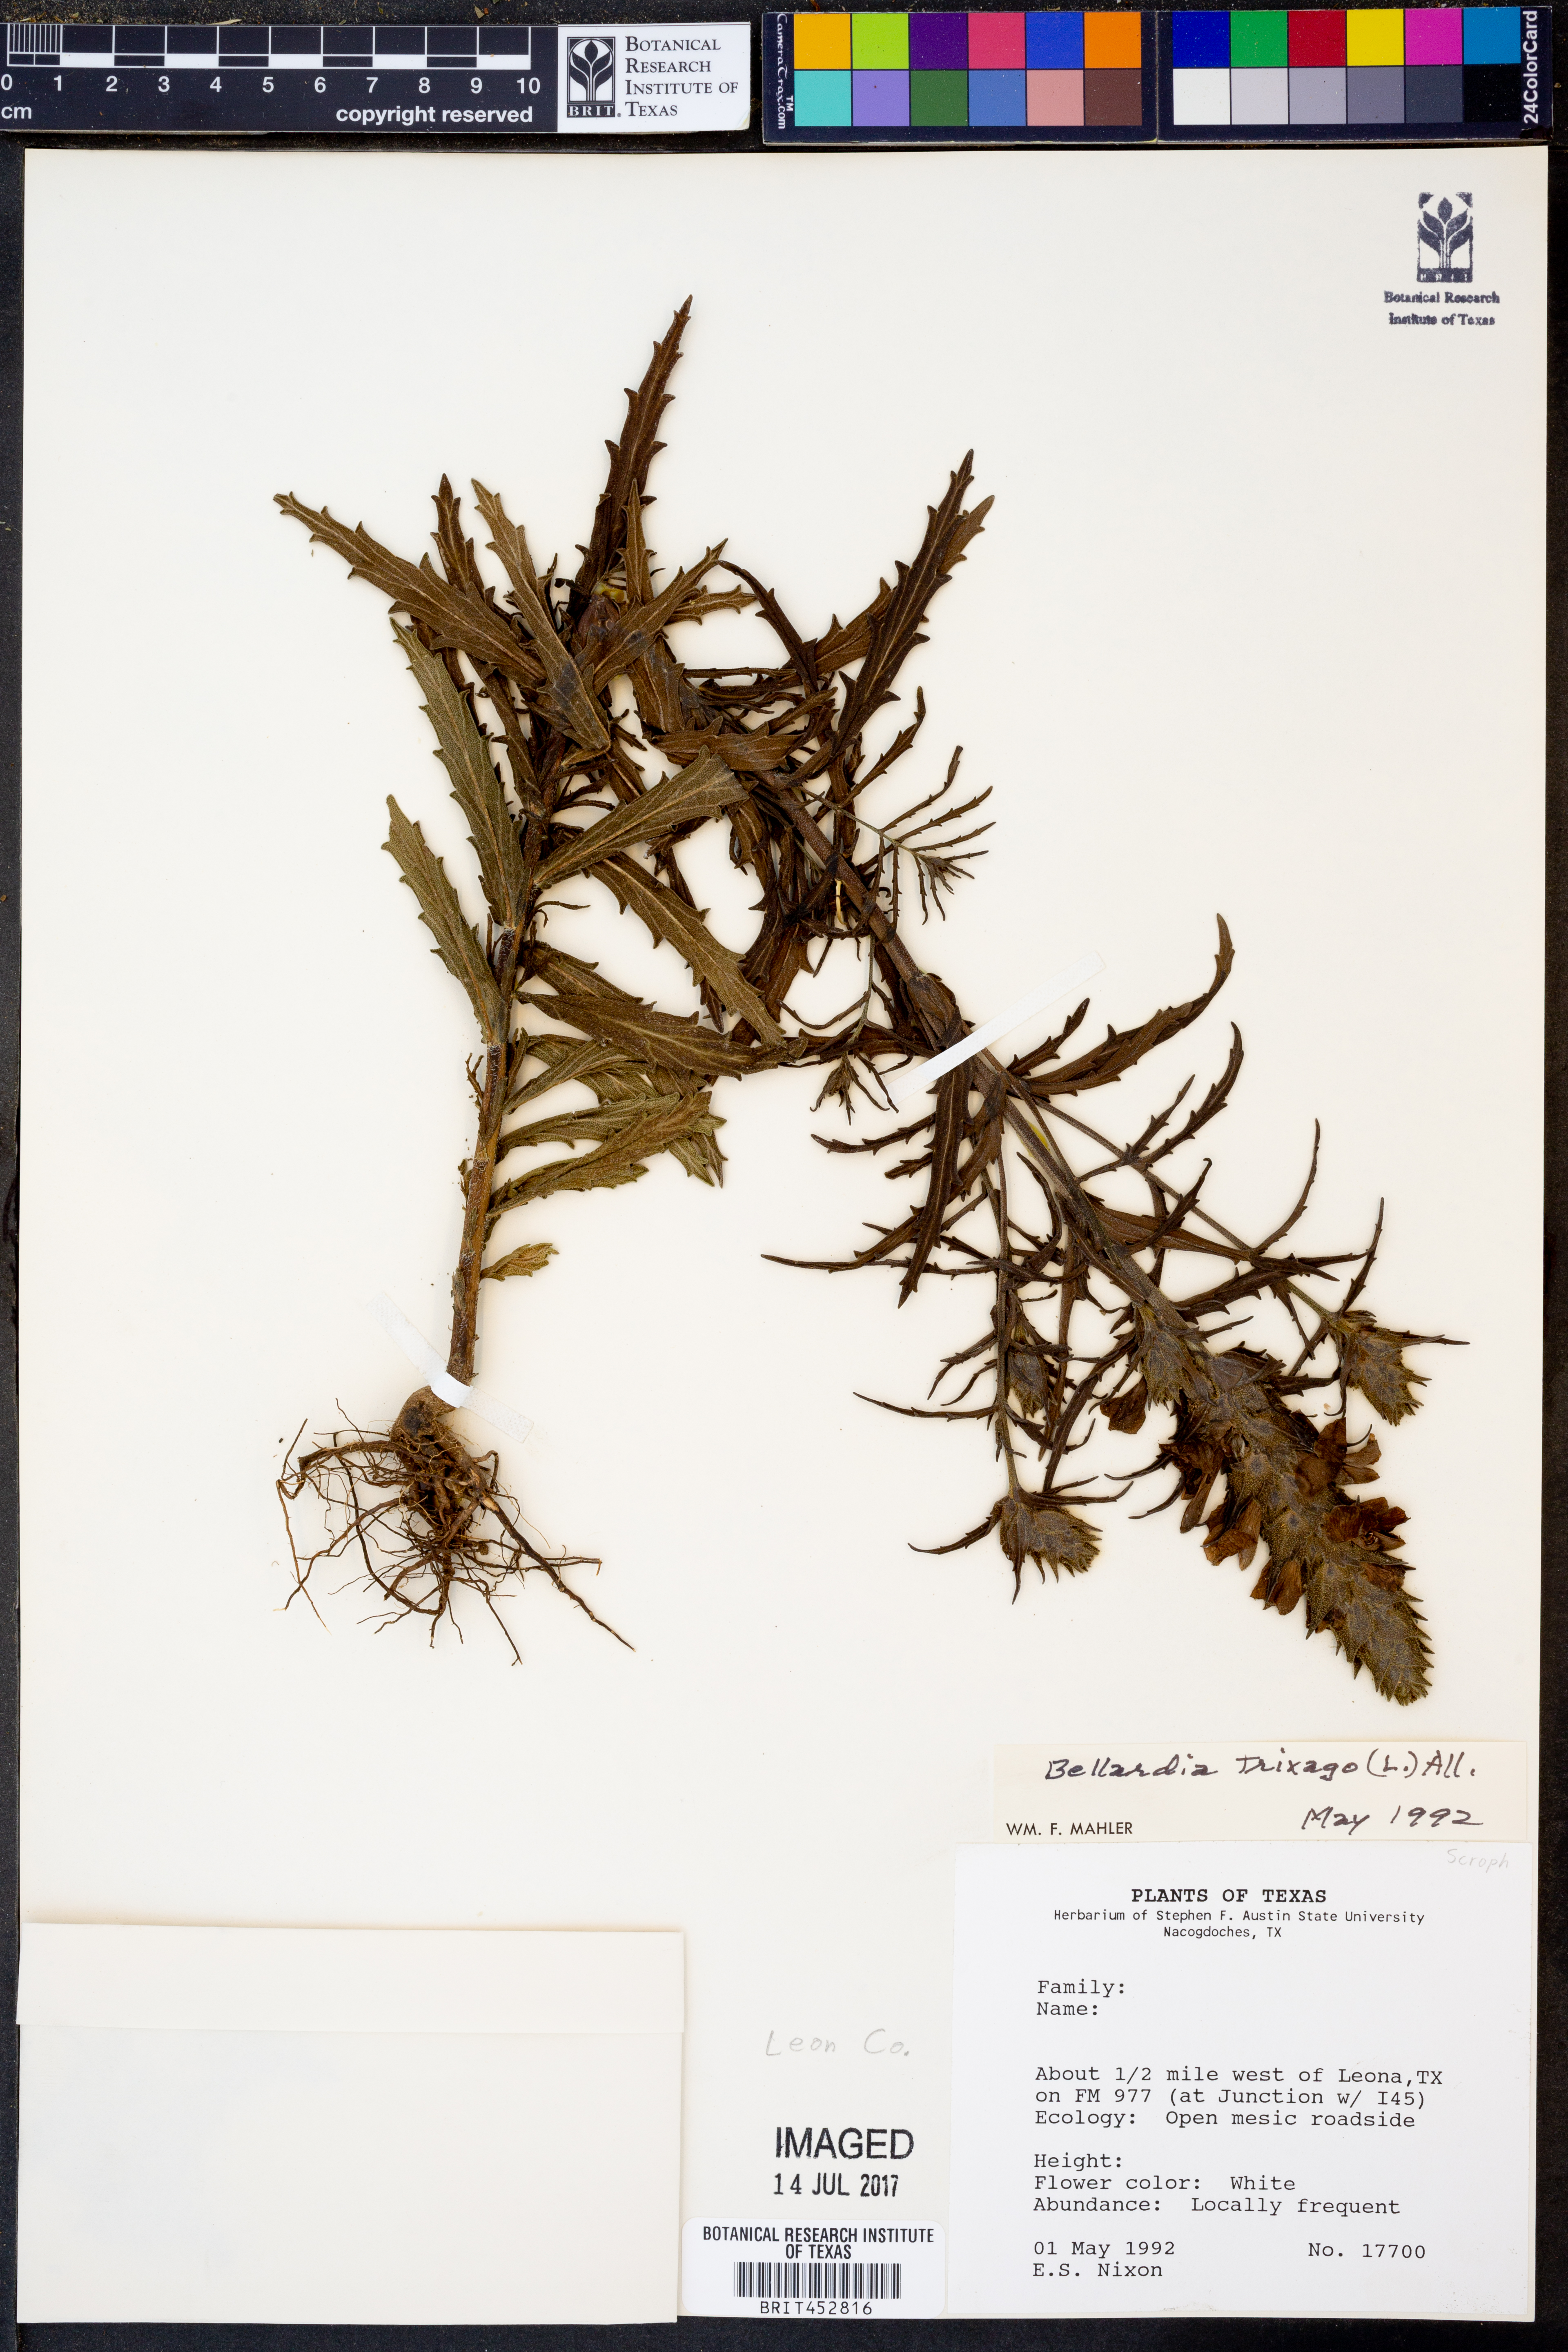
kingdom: Plantae
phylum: Tracheophyta
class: Magnoliopsida
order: Lamiales
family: Orobanchaceae
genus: Bellardia
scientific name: Bellardia trixago
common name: Mediterranean lineseed
